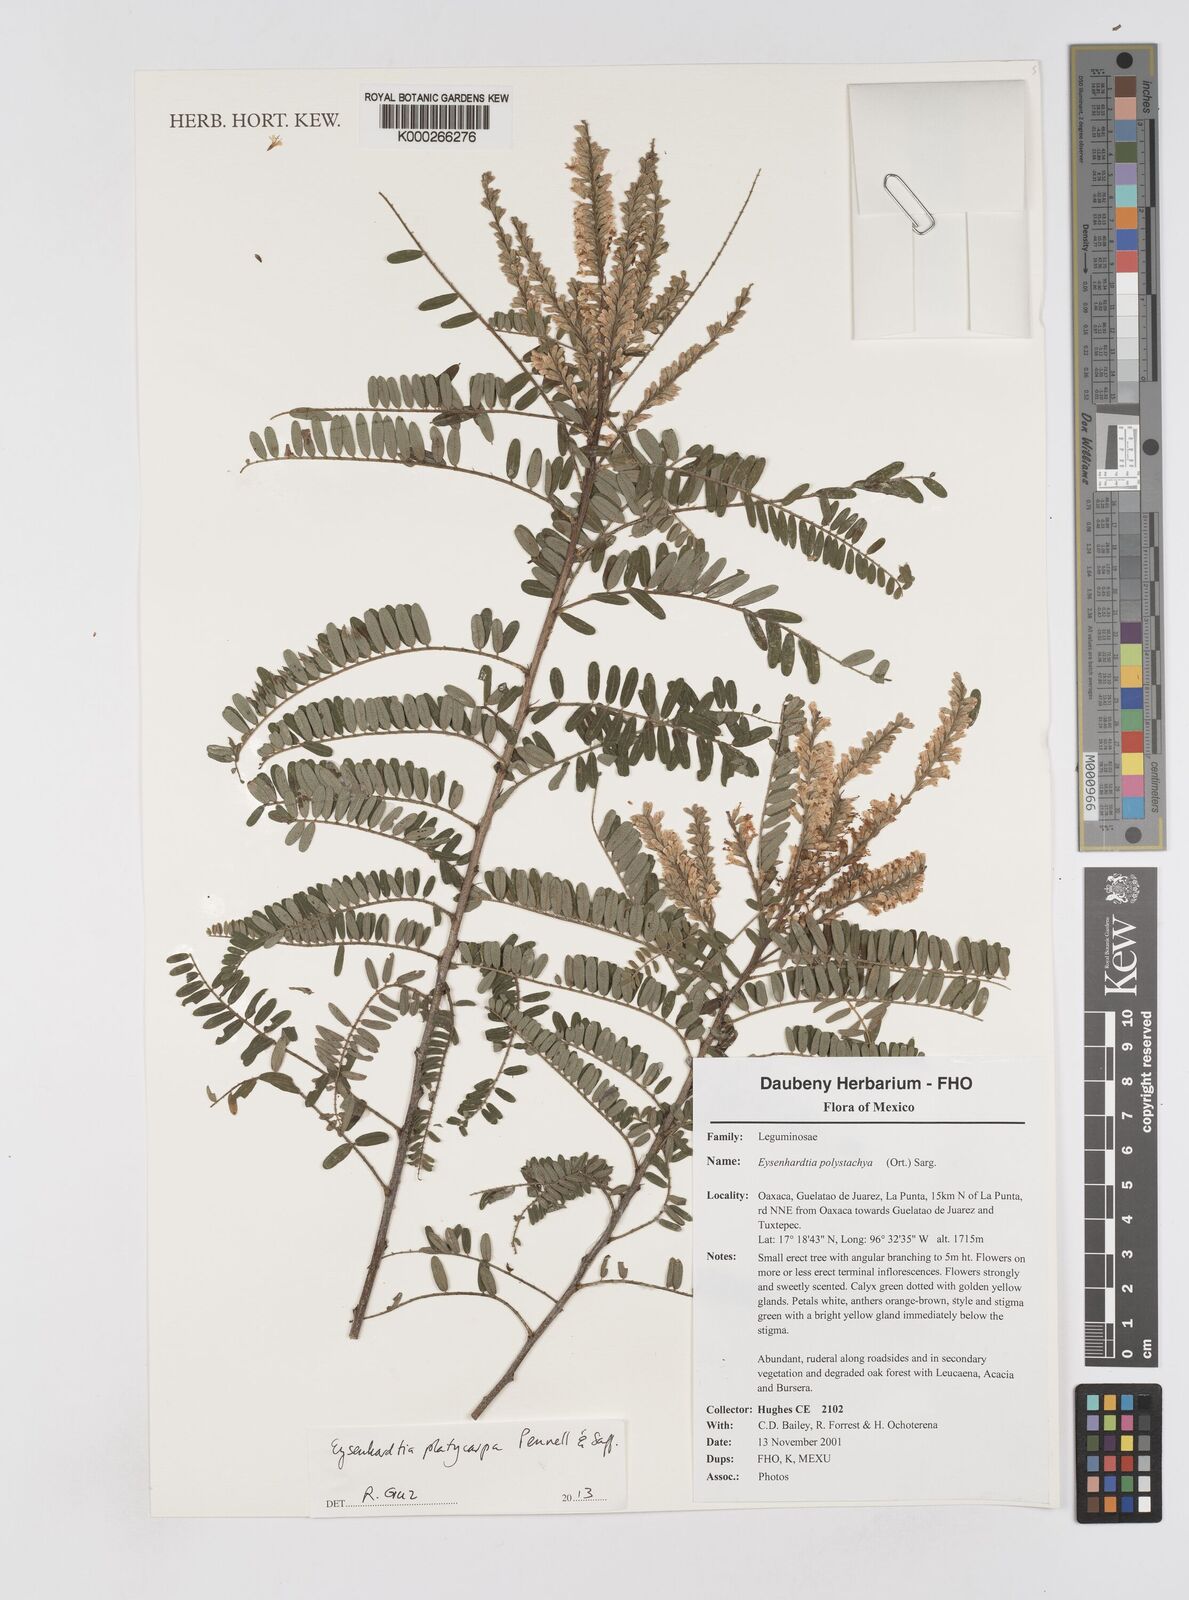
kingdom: Plantae
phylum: Tracheophyta
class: Magnoliopsida
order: Fabales
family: Fabaceae
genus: Eysenhardtia
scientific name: Eysenhardtia platycarpa
